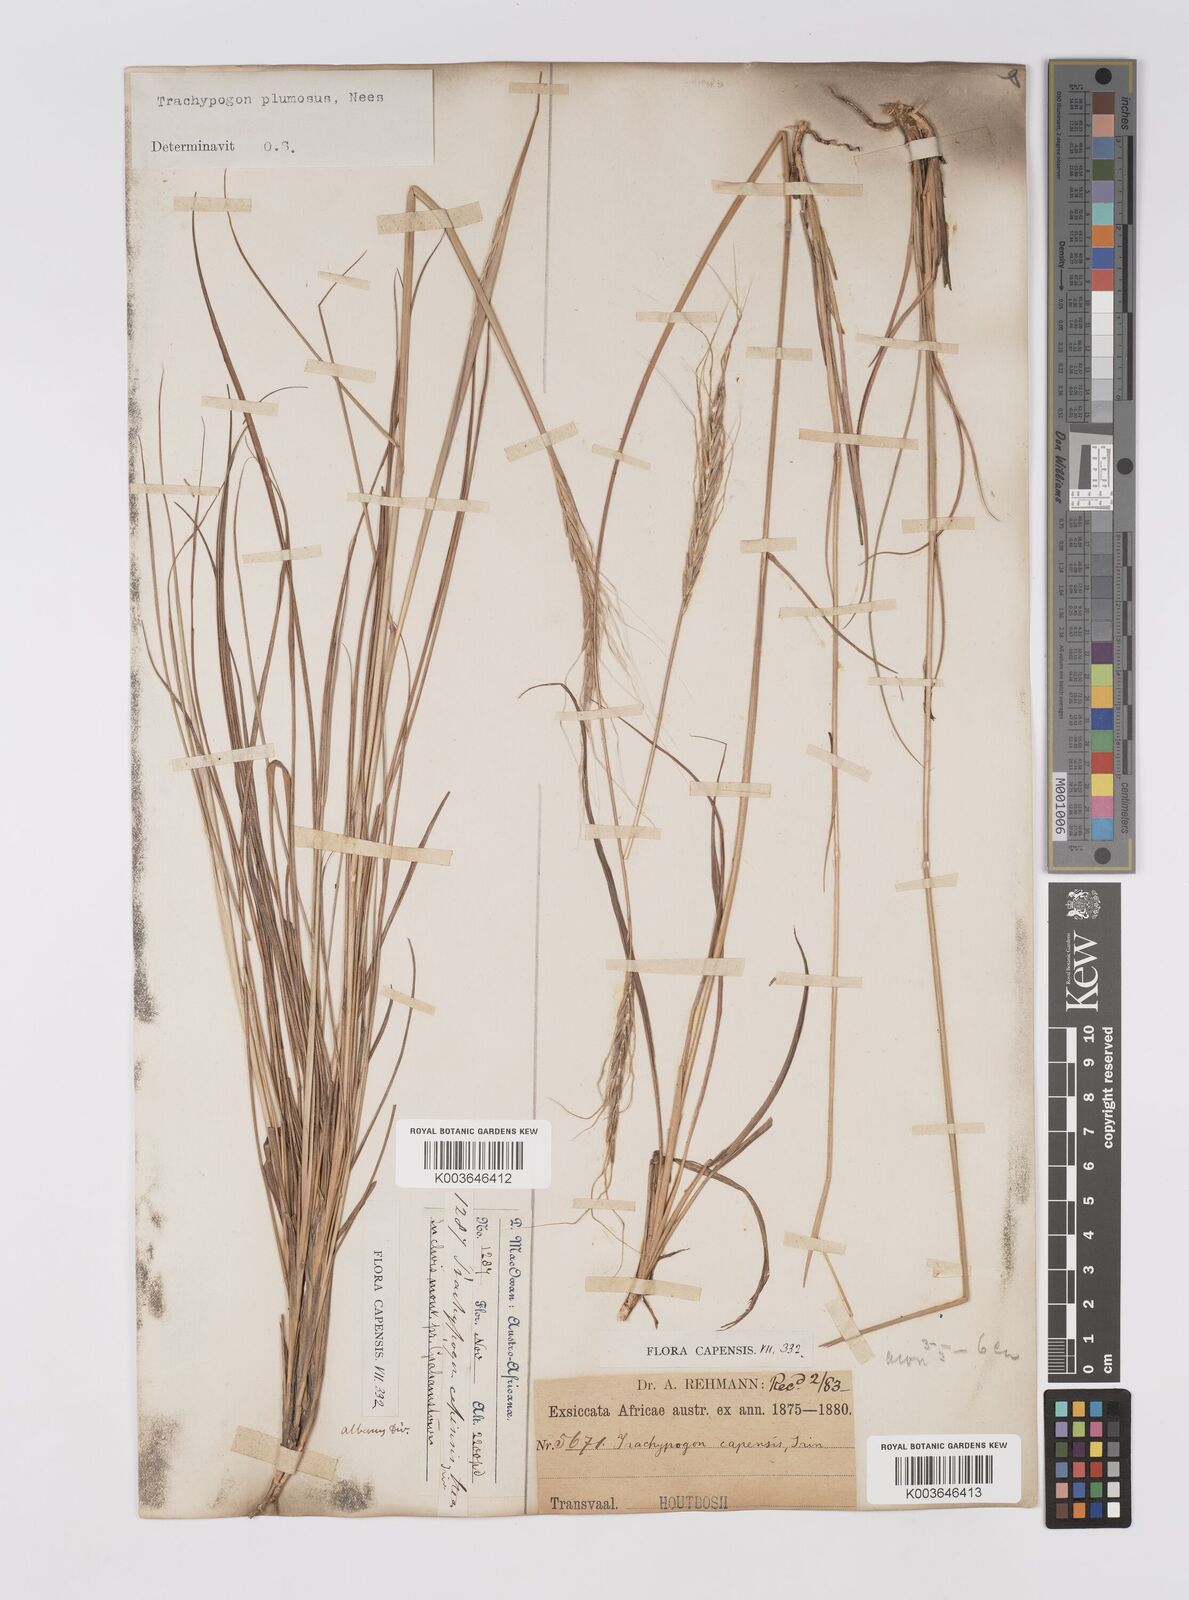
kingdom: Plantae
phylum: Tracheophyta
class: Liliopsida
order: Poales
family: Poaceae
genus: Trachypogon
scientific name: Trachypogon spicatus
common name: Crinkle-awn
